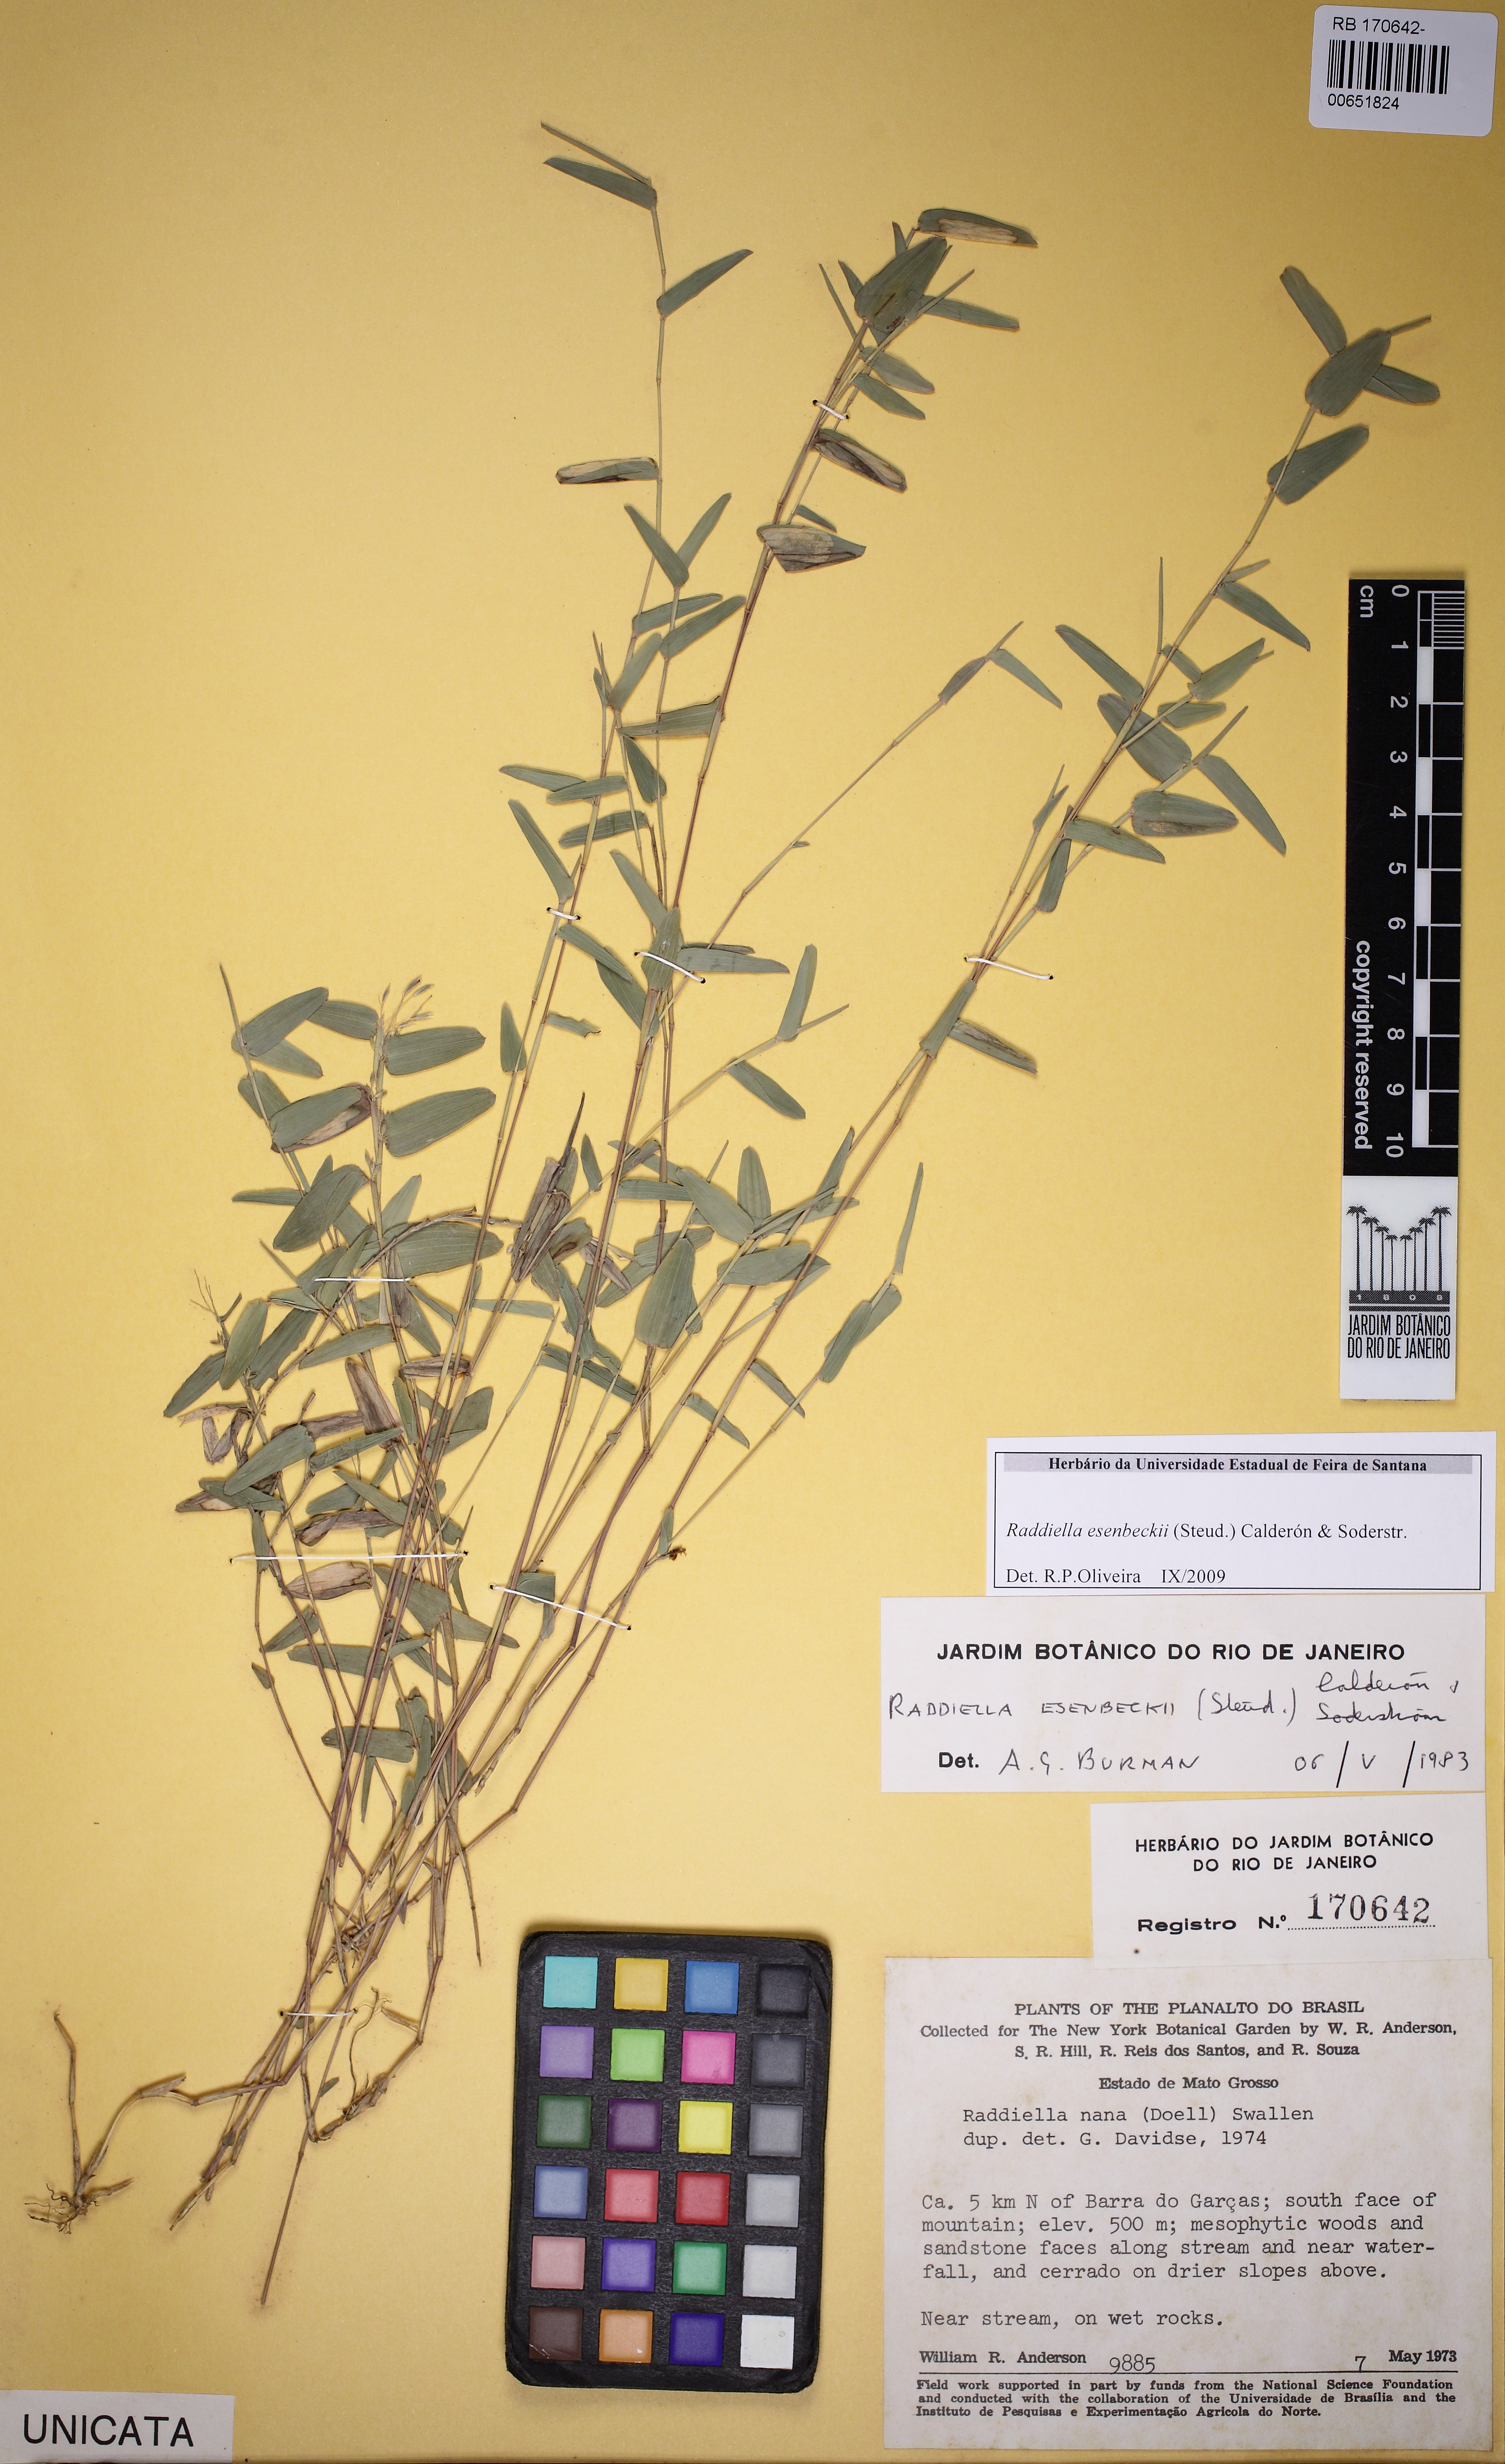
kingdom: Plantae
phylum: Tracheophyta
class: Liliopsida
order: Poales
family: Poaceae
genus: Raddiella
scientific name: Raddiella esenbeckii
